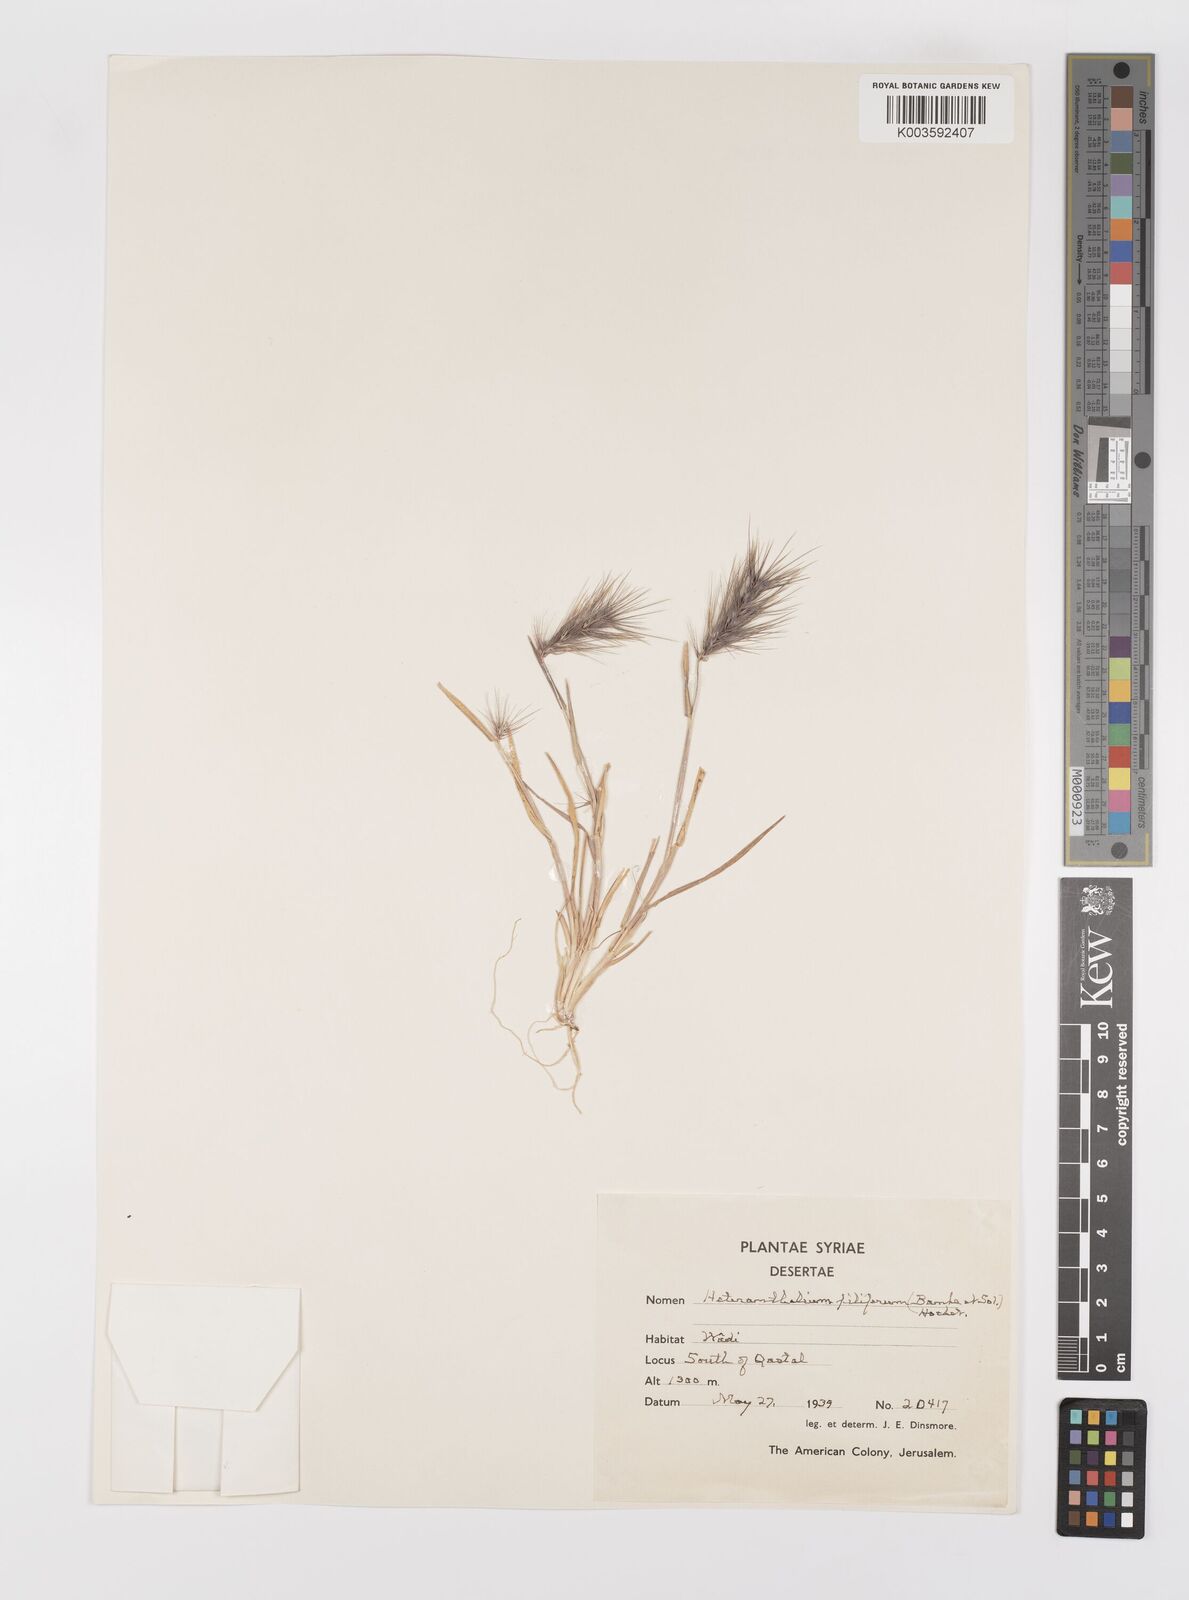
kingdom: Plantae
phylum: Tracheophyta
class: Liliopsida
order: Poales
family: Poaceae
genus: Heteranthelium
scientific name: Heteranthelium piliferum
